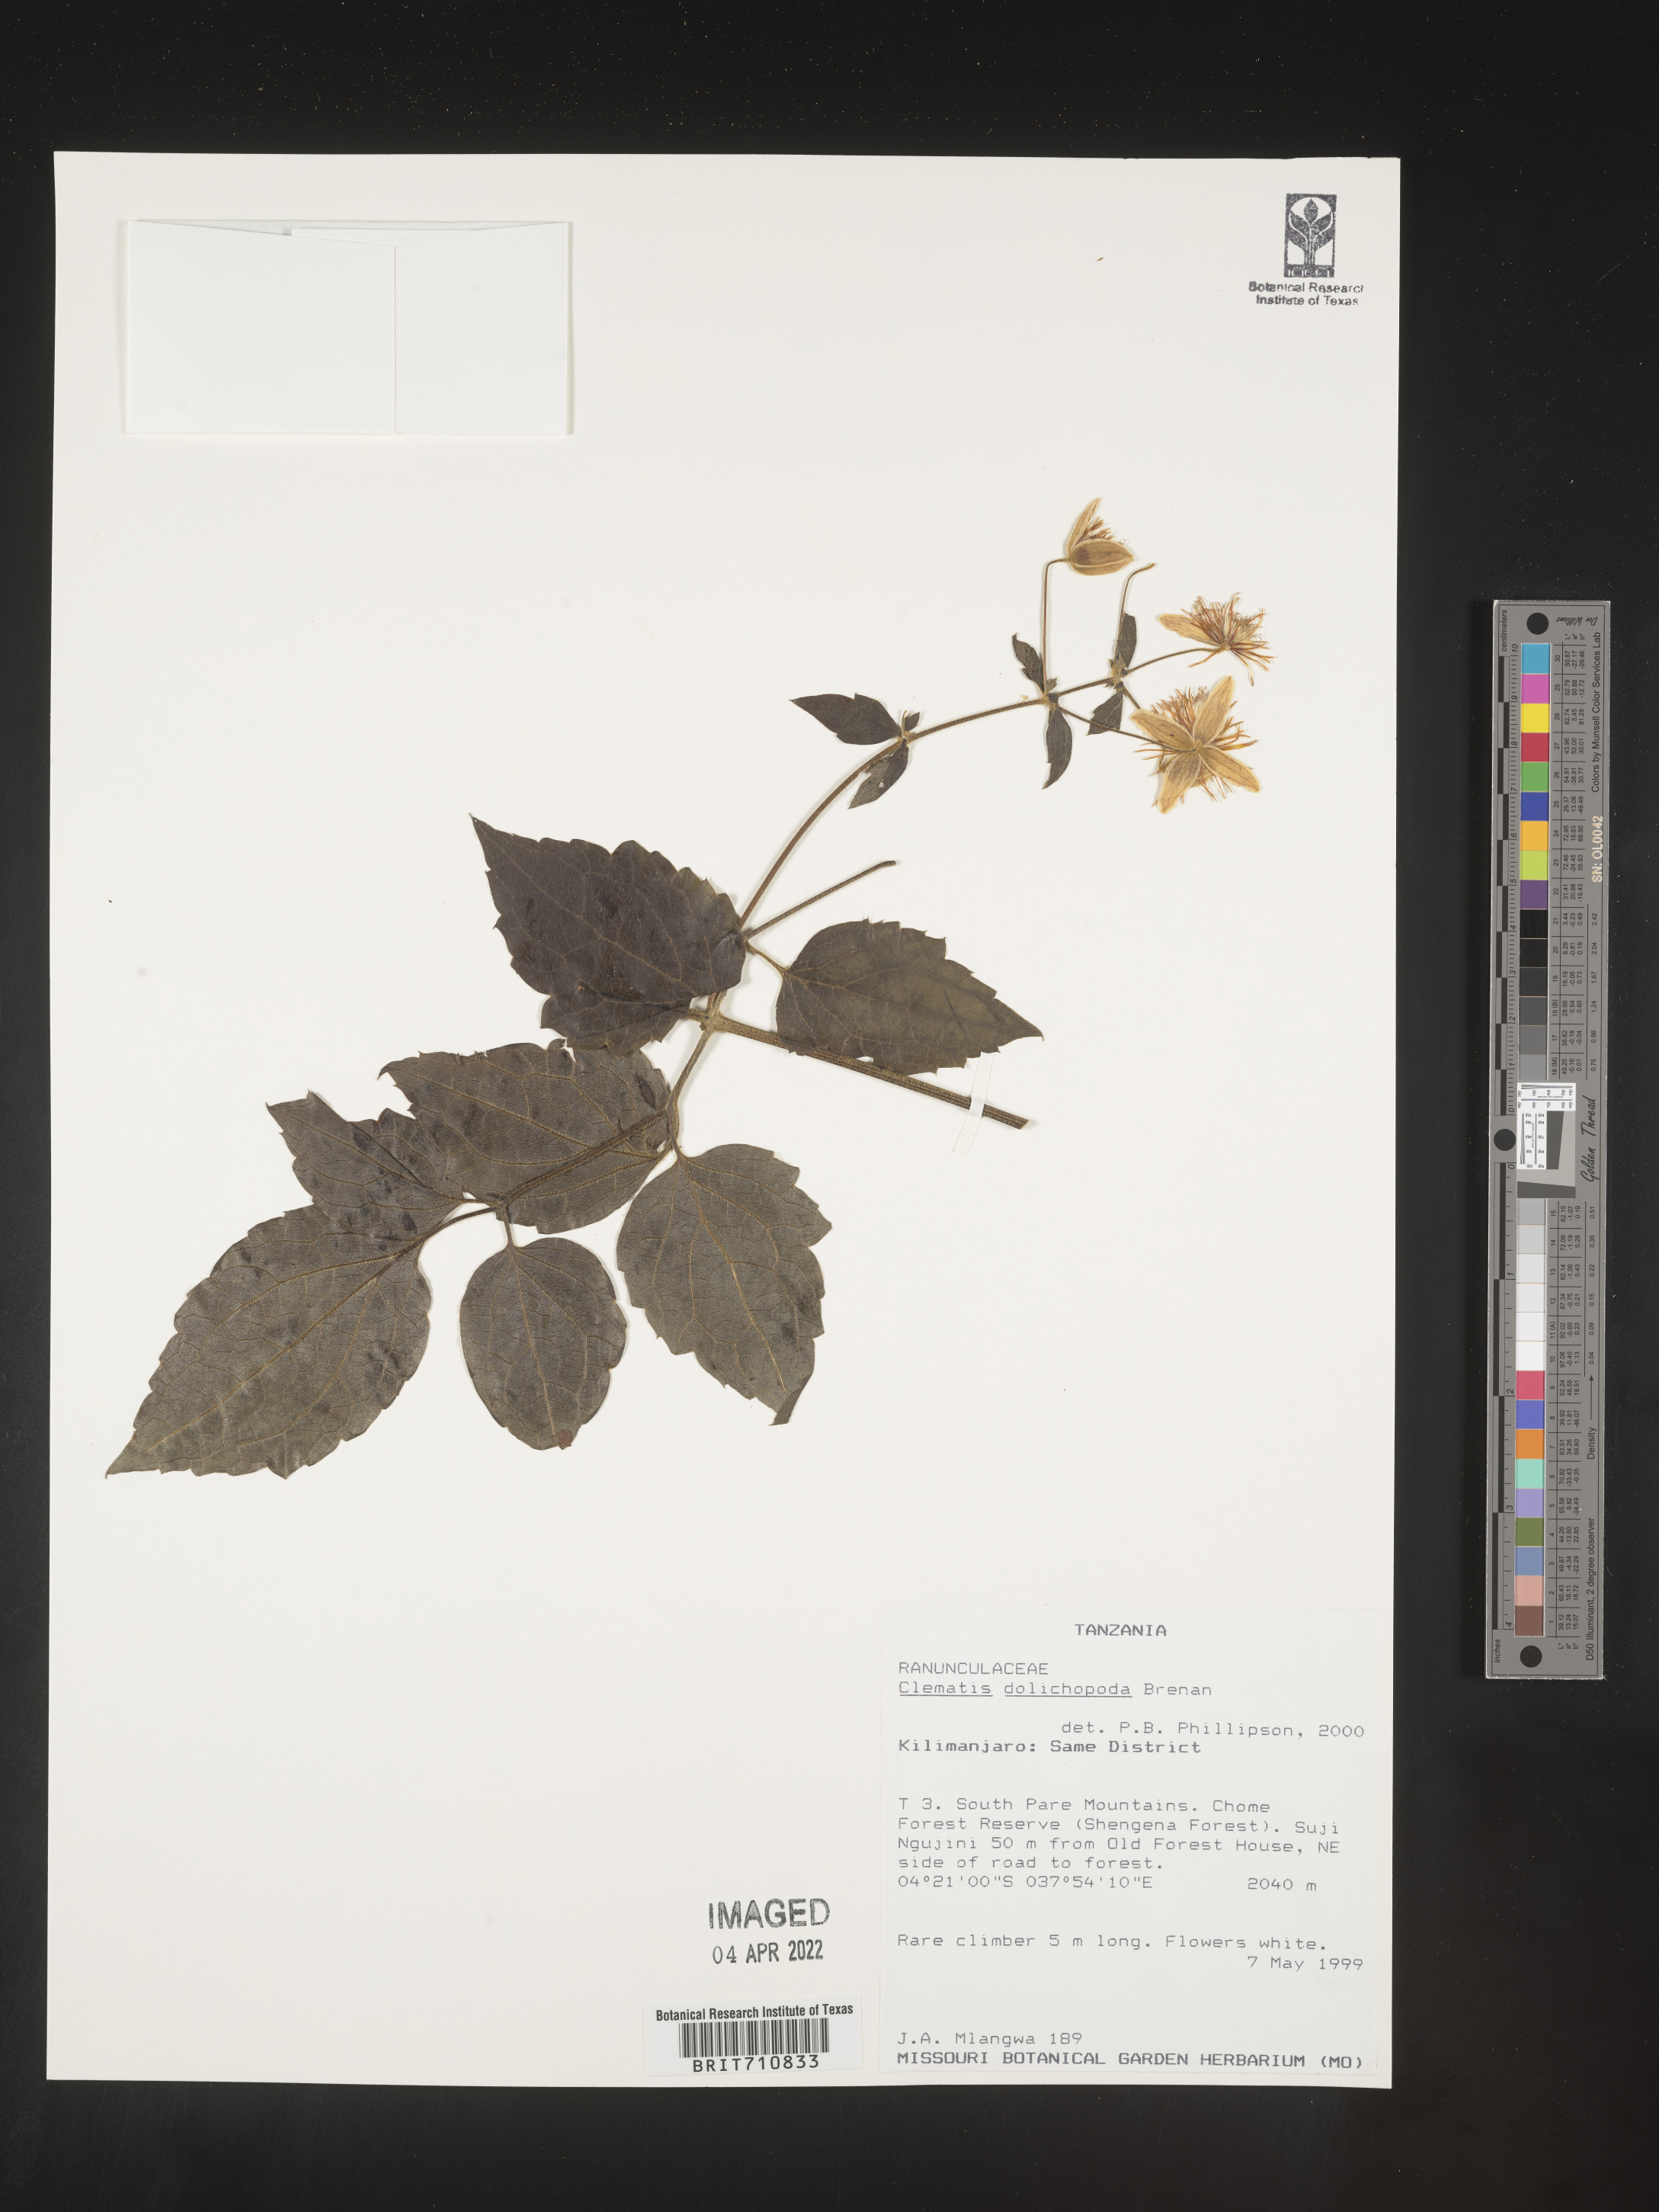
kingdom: Plantae
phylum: Tracheophyta
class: Magnoliopsida
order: Ranunculales
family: Ranunculaceae
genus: Clematis
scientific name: Clematis
